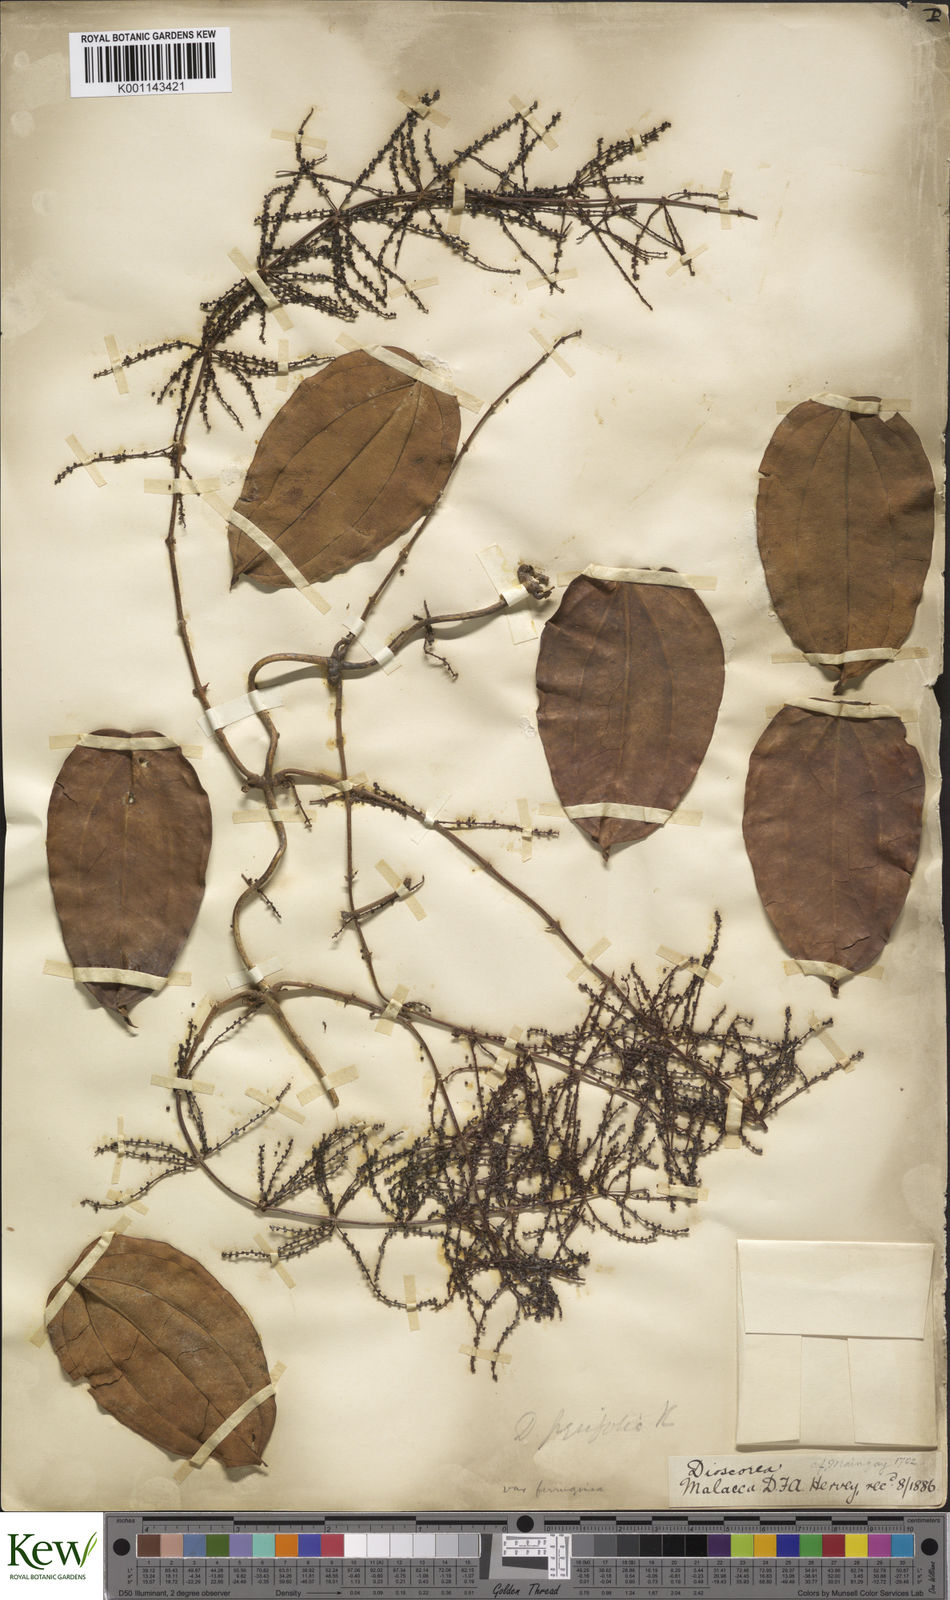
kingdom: Plantae
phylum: Tracheophyta
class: Liliopsida
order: Dioscoreales
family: Dioscoreaceae
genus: Dioscorea
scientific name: Dioscorea pyrifolia
